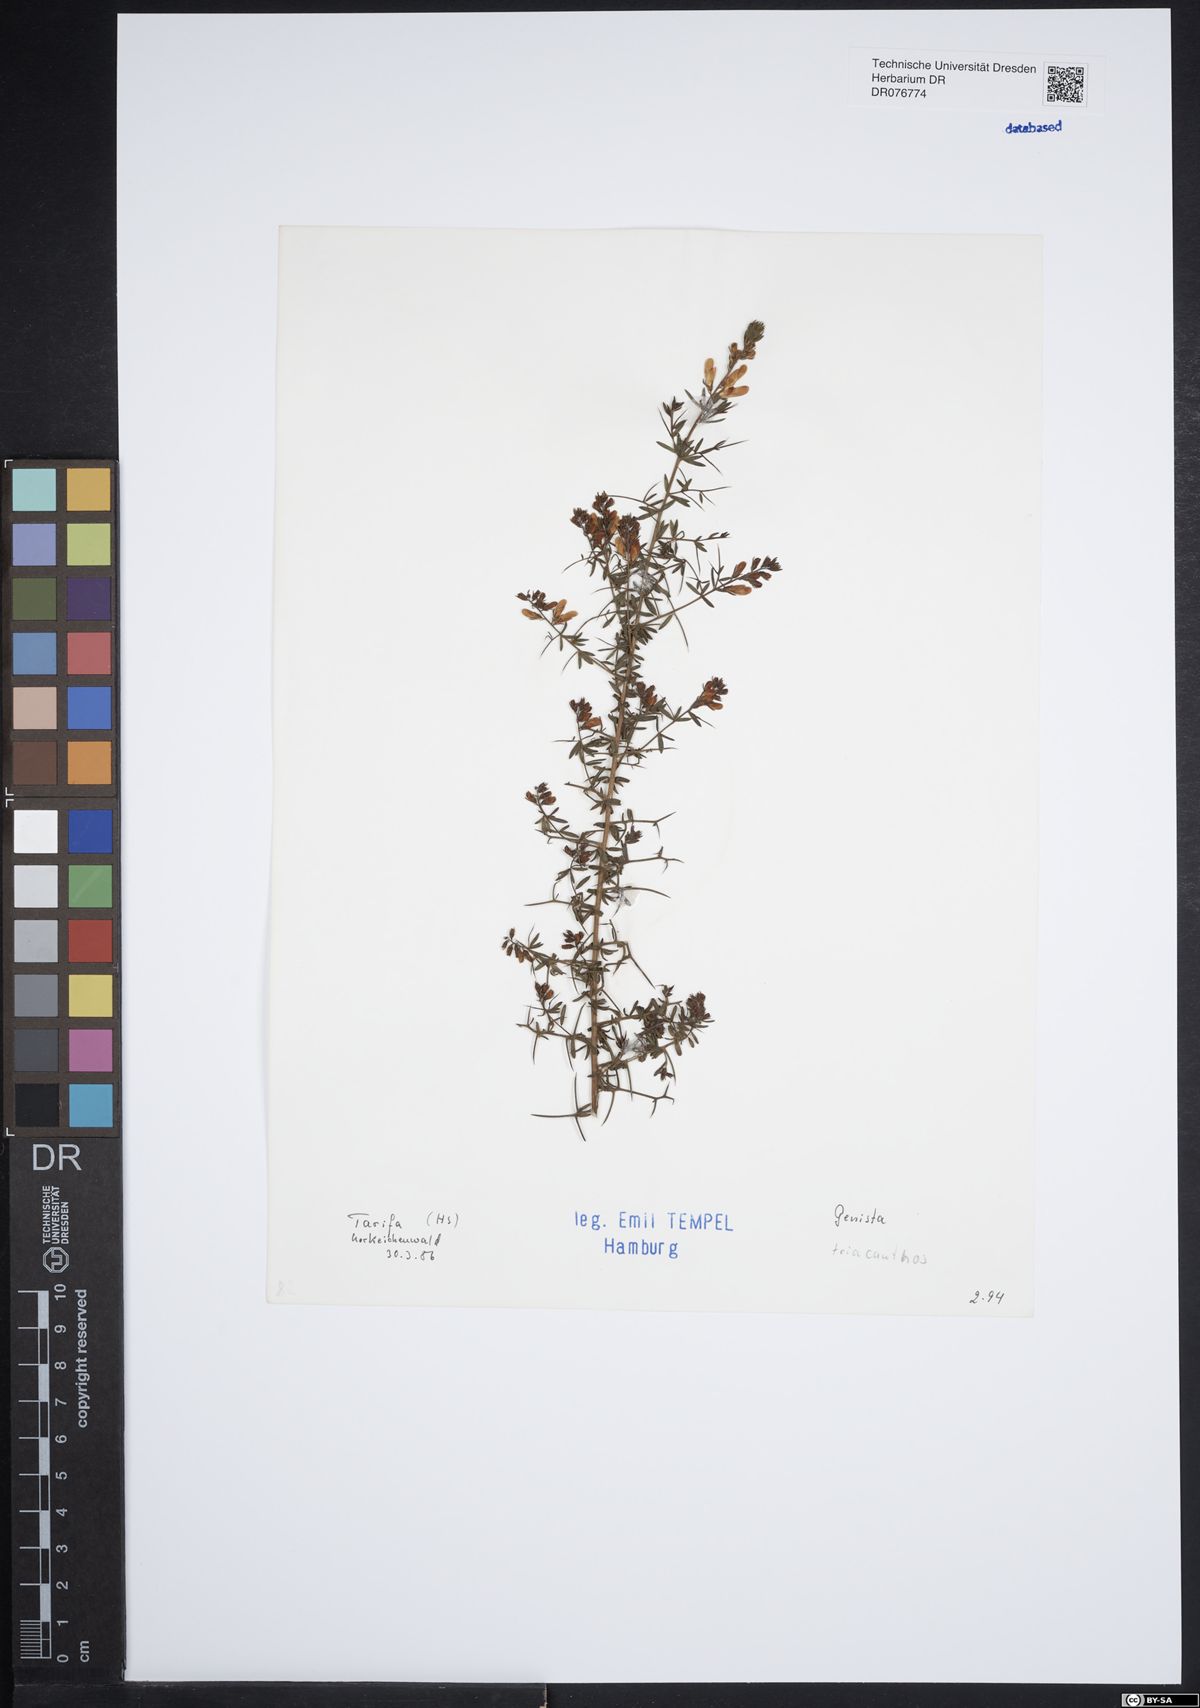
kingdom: Plantae
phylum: Tracheophyta
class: Magnoliopsida
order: Fabales
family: Fabaceae
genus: Genista
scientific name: Genista triacanthos
